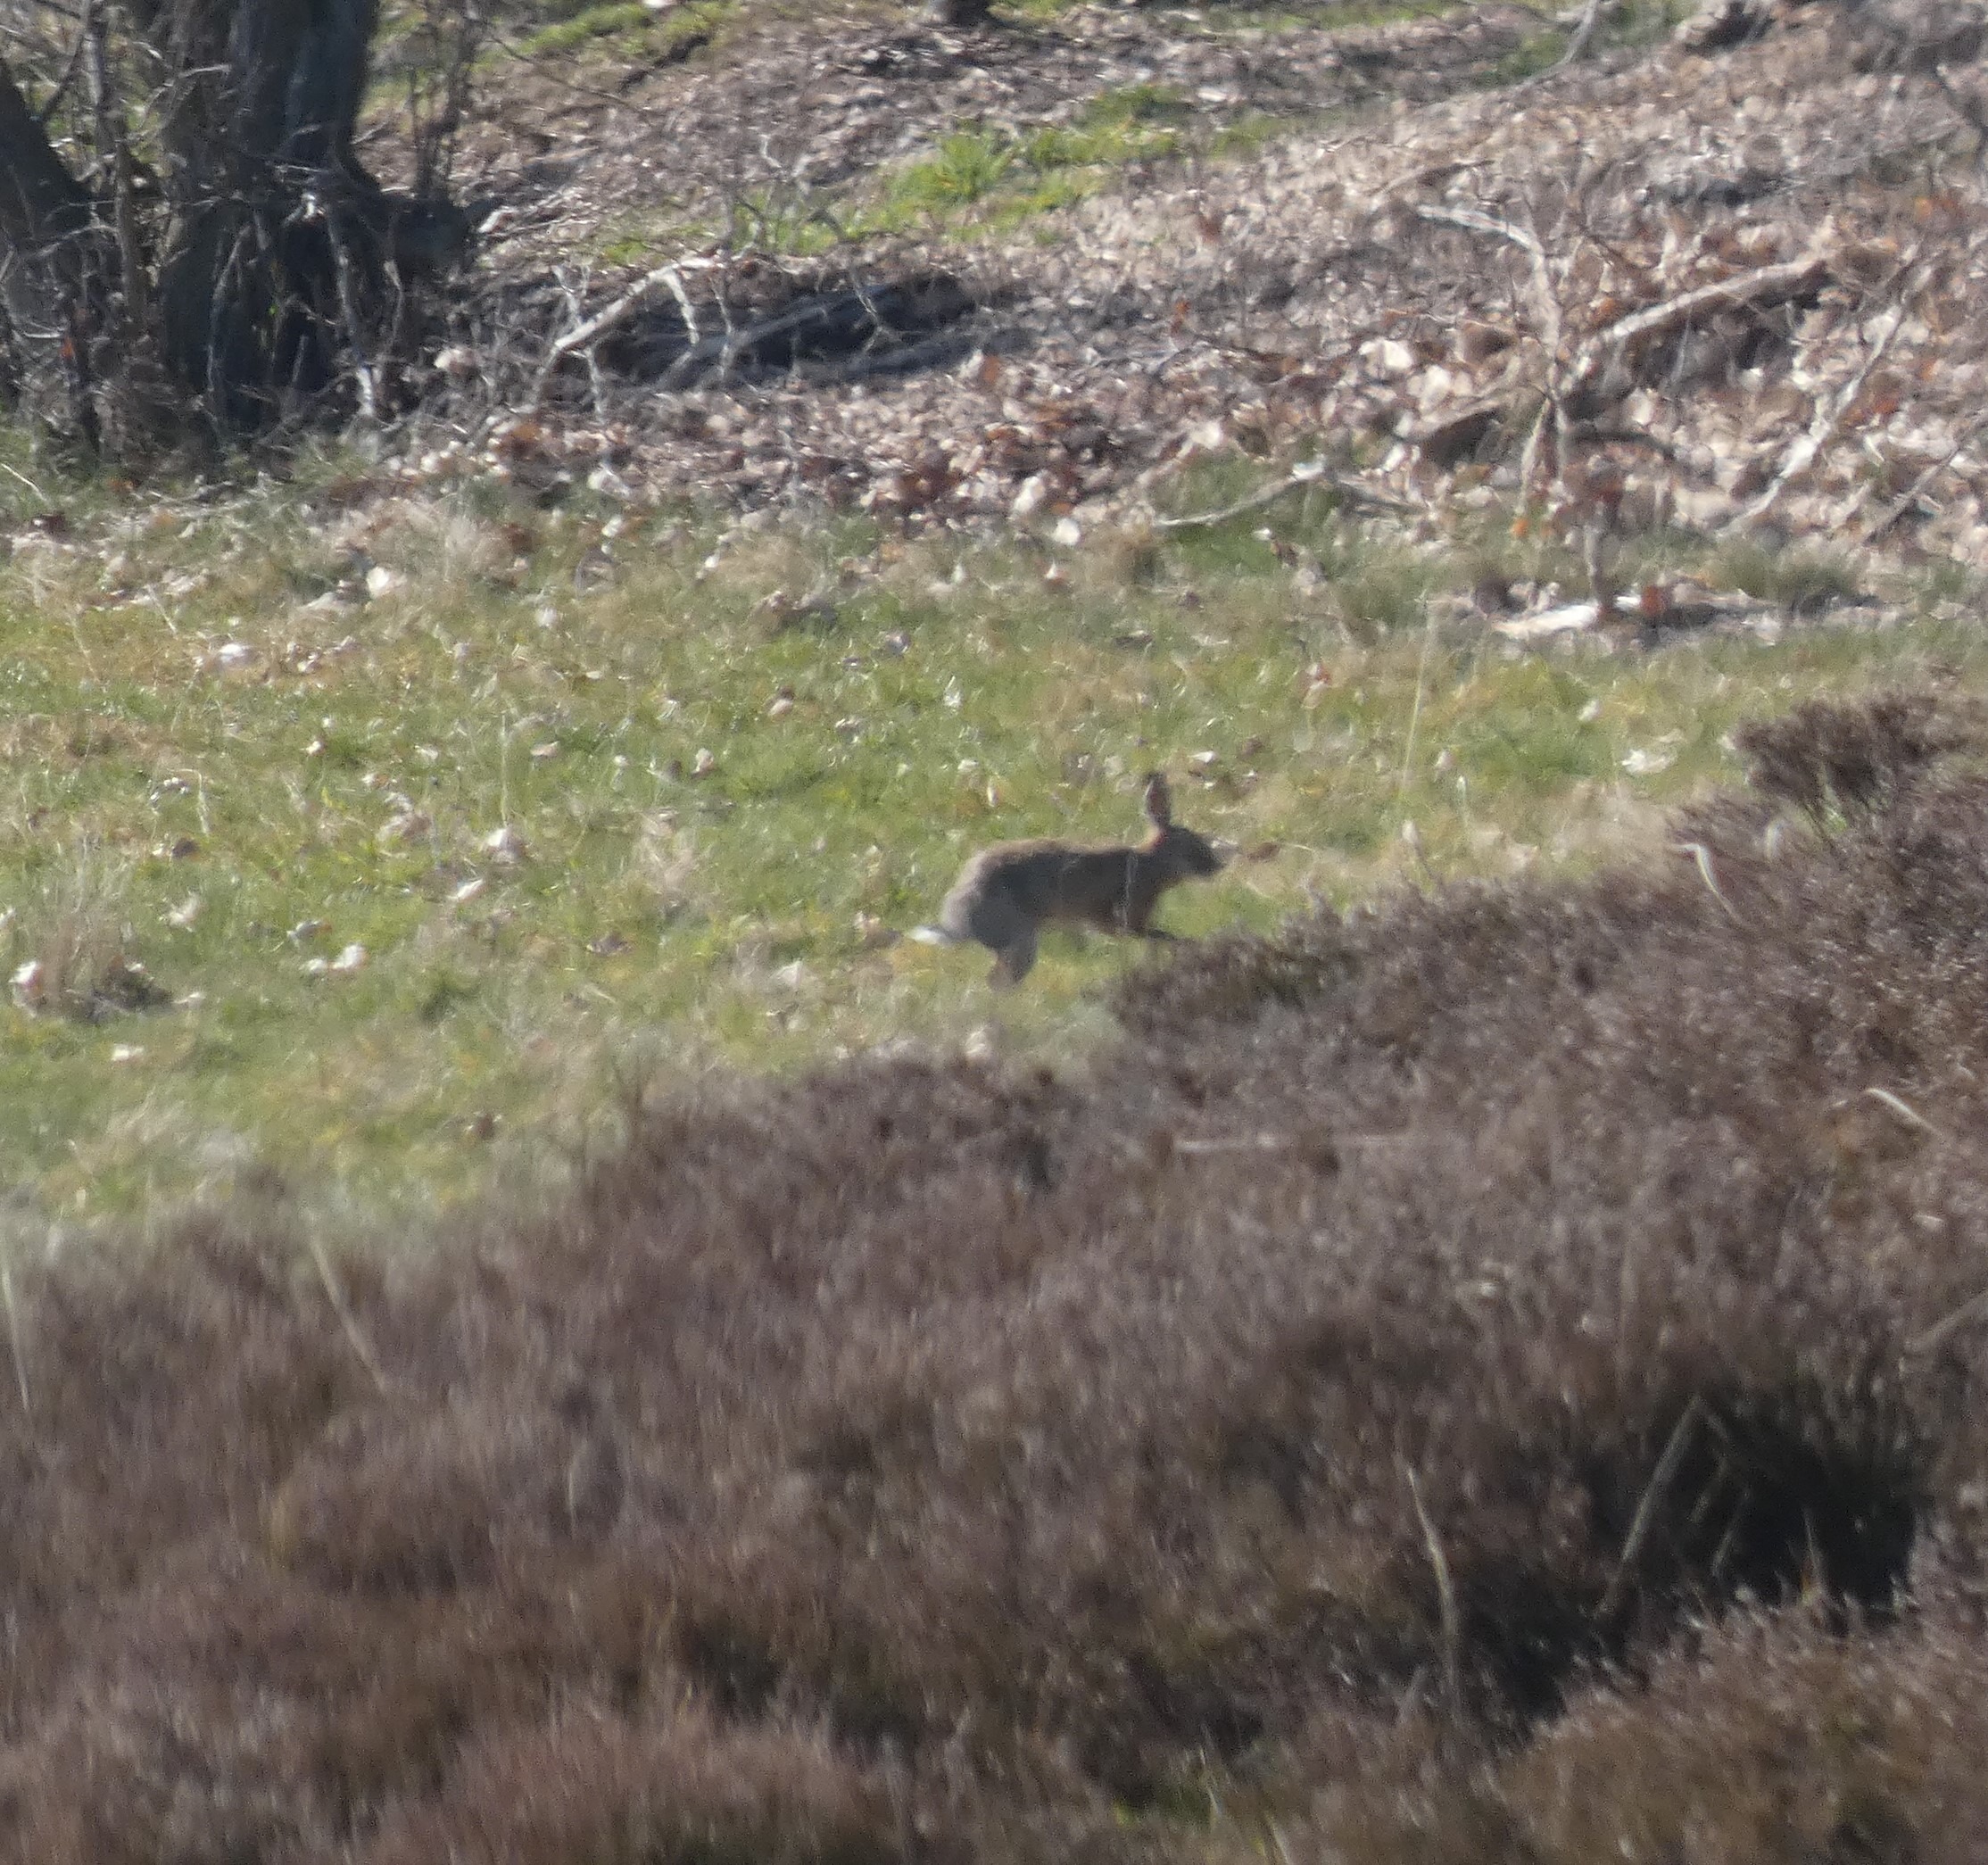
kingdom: Animalia
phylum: Chordata
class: Mammalia
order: Lagomorpha
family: Leporidae
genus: Lepus
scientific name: Lepus europaeus
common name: Hare
